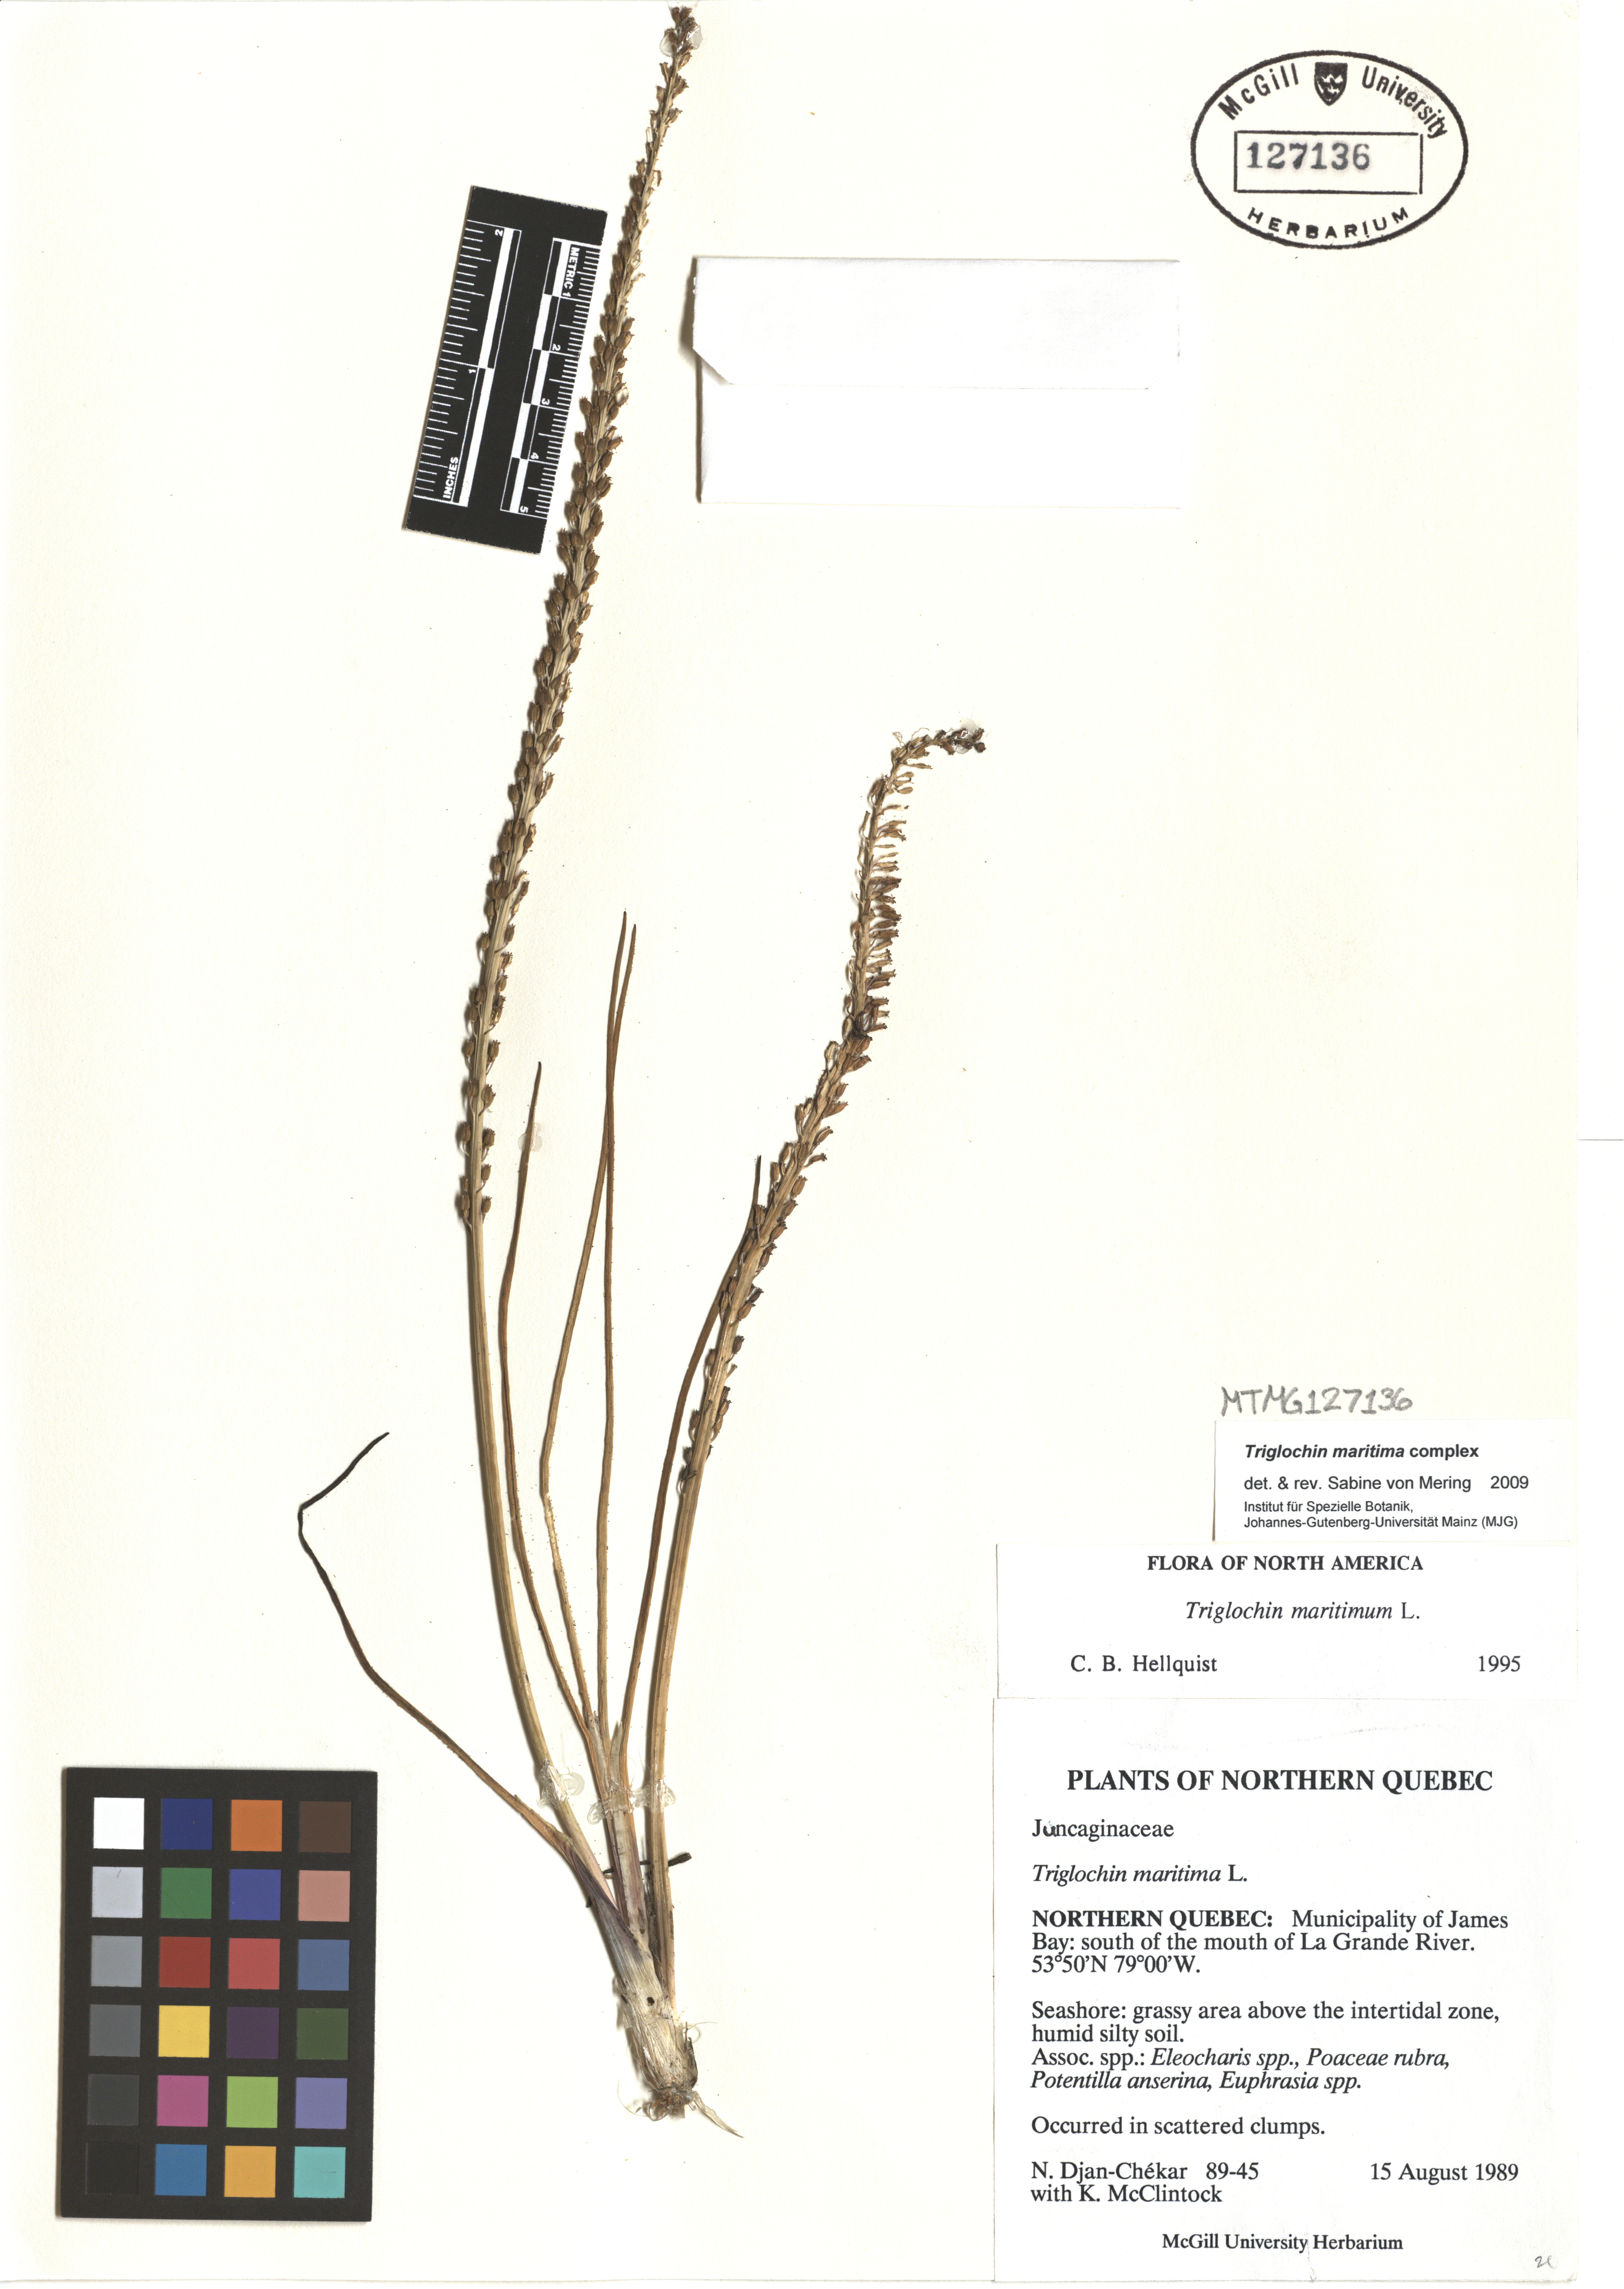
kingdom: Plantae
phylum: Tracheophyta
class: Liliopsida
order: Alismatales
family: Juncaginaceae
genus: Triglochin
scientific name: Triglochin maritima
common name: Sea arrowgrass
